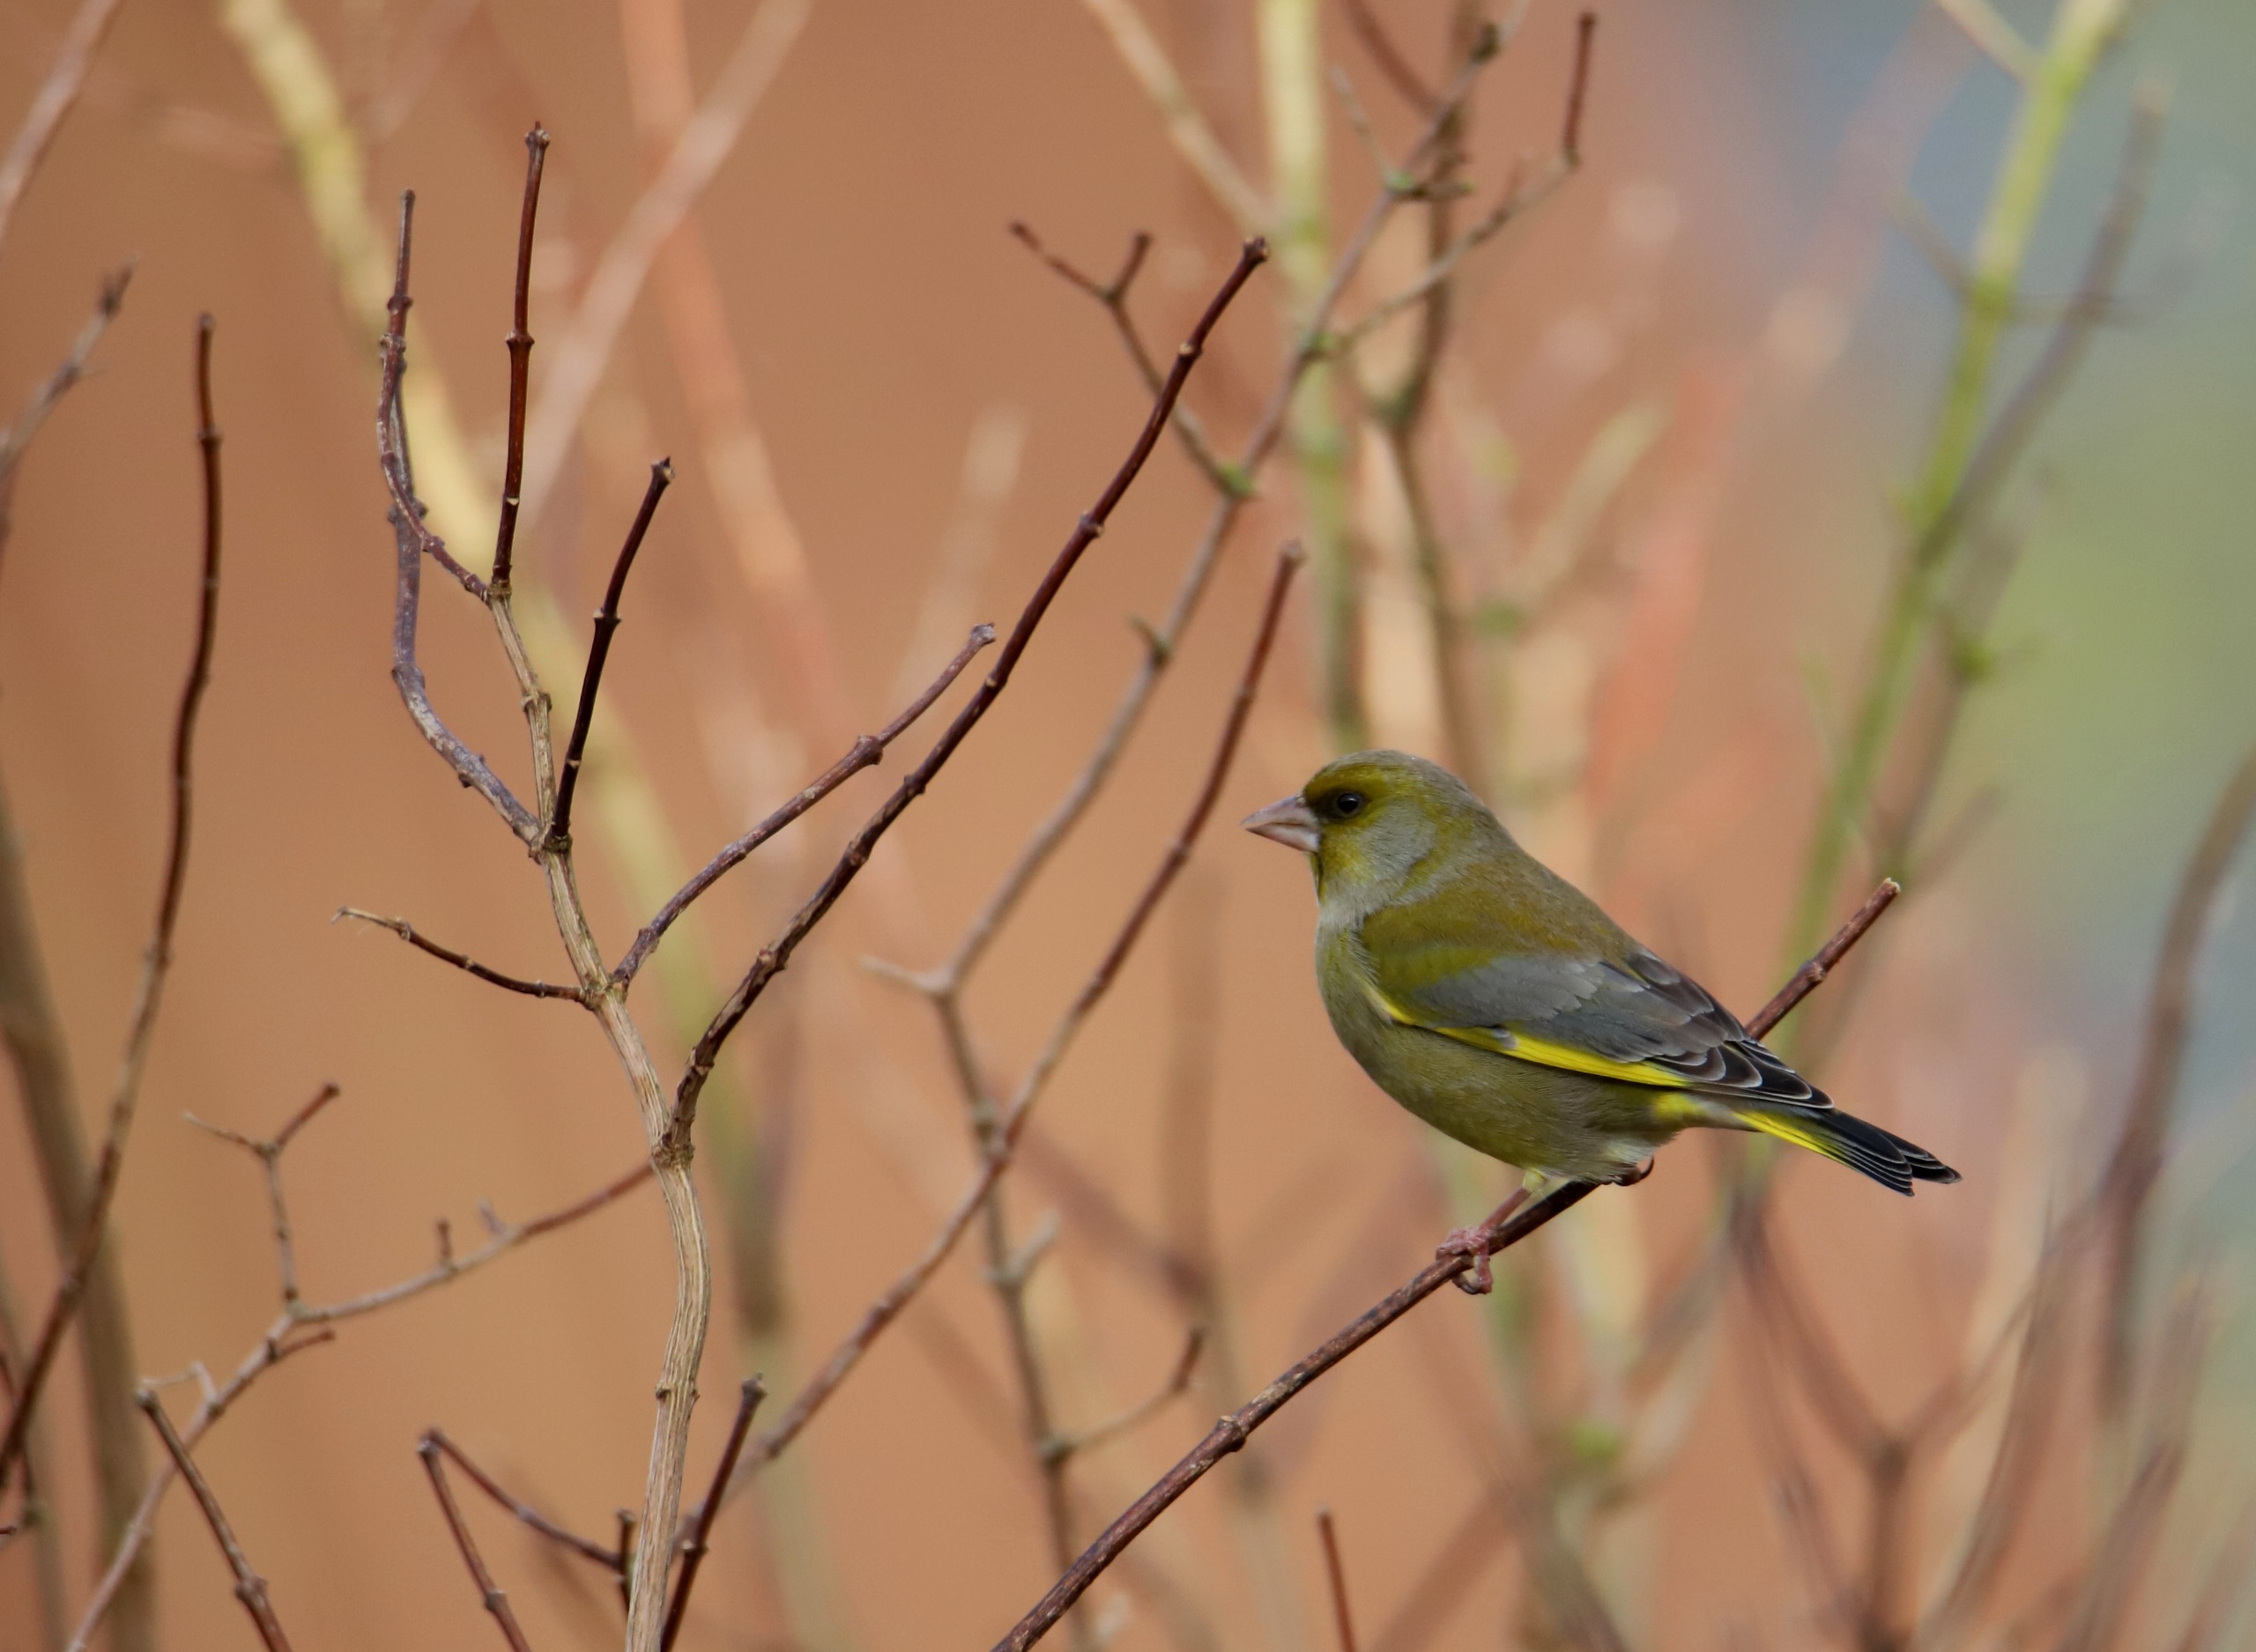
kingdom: Plantae
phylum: Tracheophyta
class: Liliopsida
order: Poales
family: Poaceae
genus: Chloris
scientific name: Chloris chloris
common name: Grønirisk
